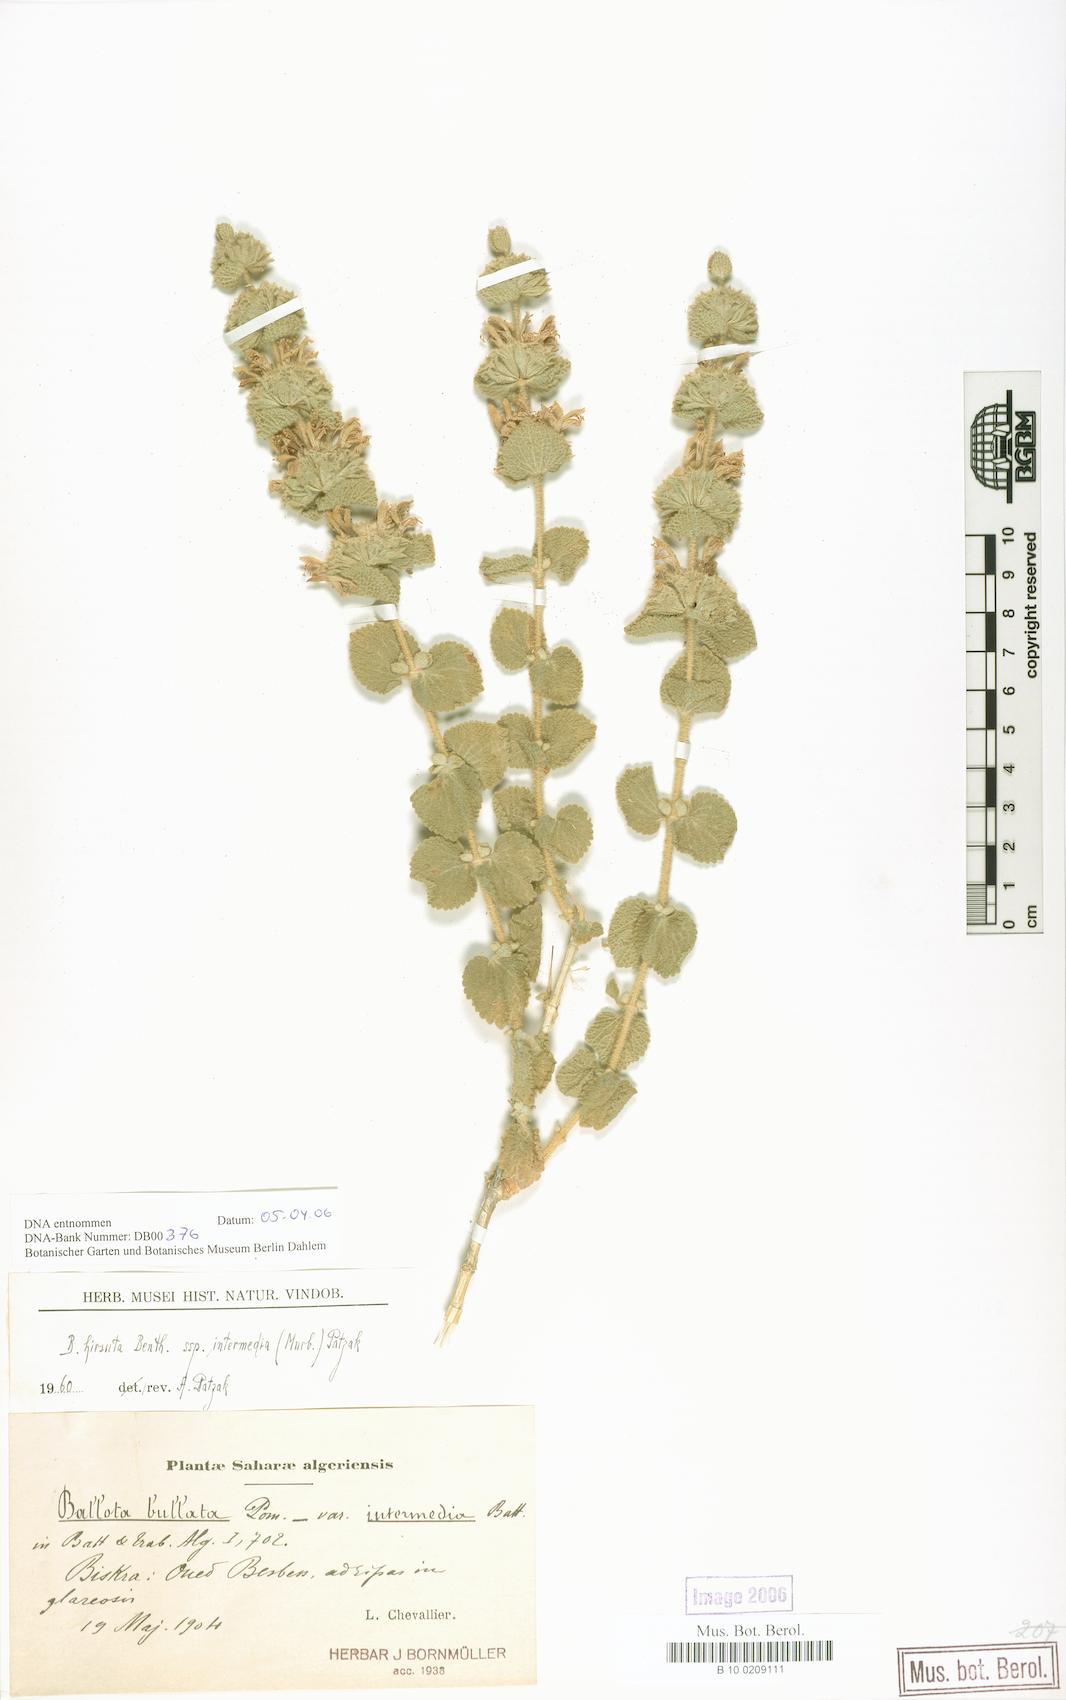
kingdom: Plantae
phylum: Tracheophyta
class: Magnoliopsida
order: Lamiales
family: Lamiaceae
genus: Pseudodictamnus
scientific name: Pseudodictamnus hirsutus
